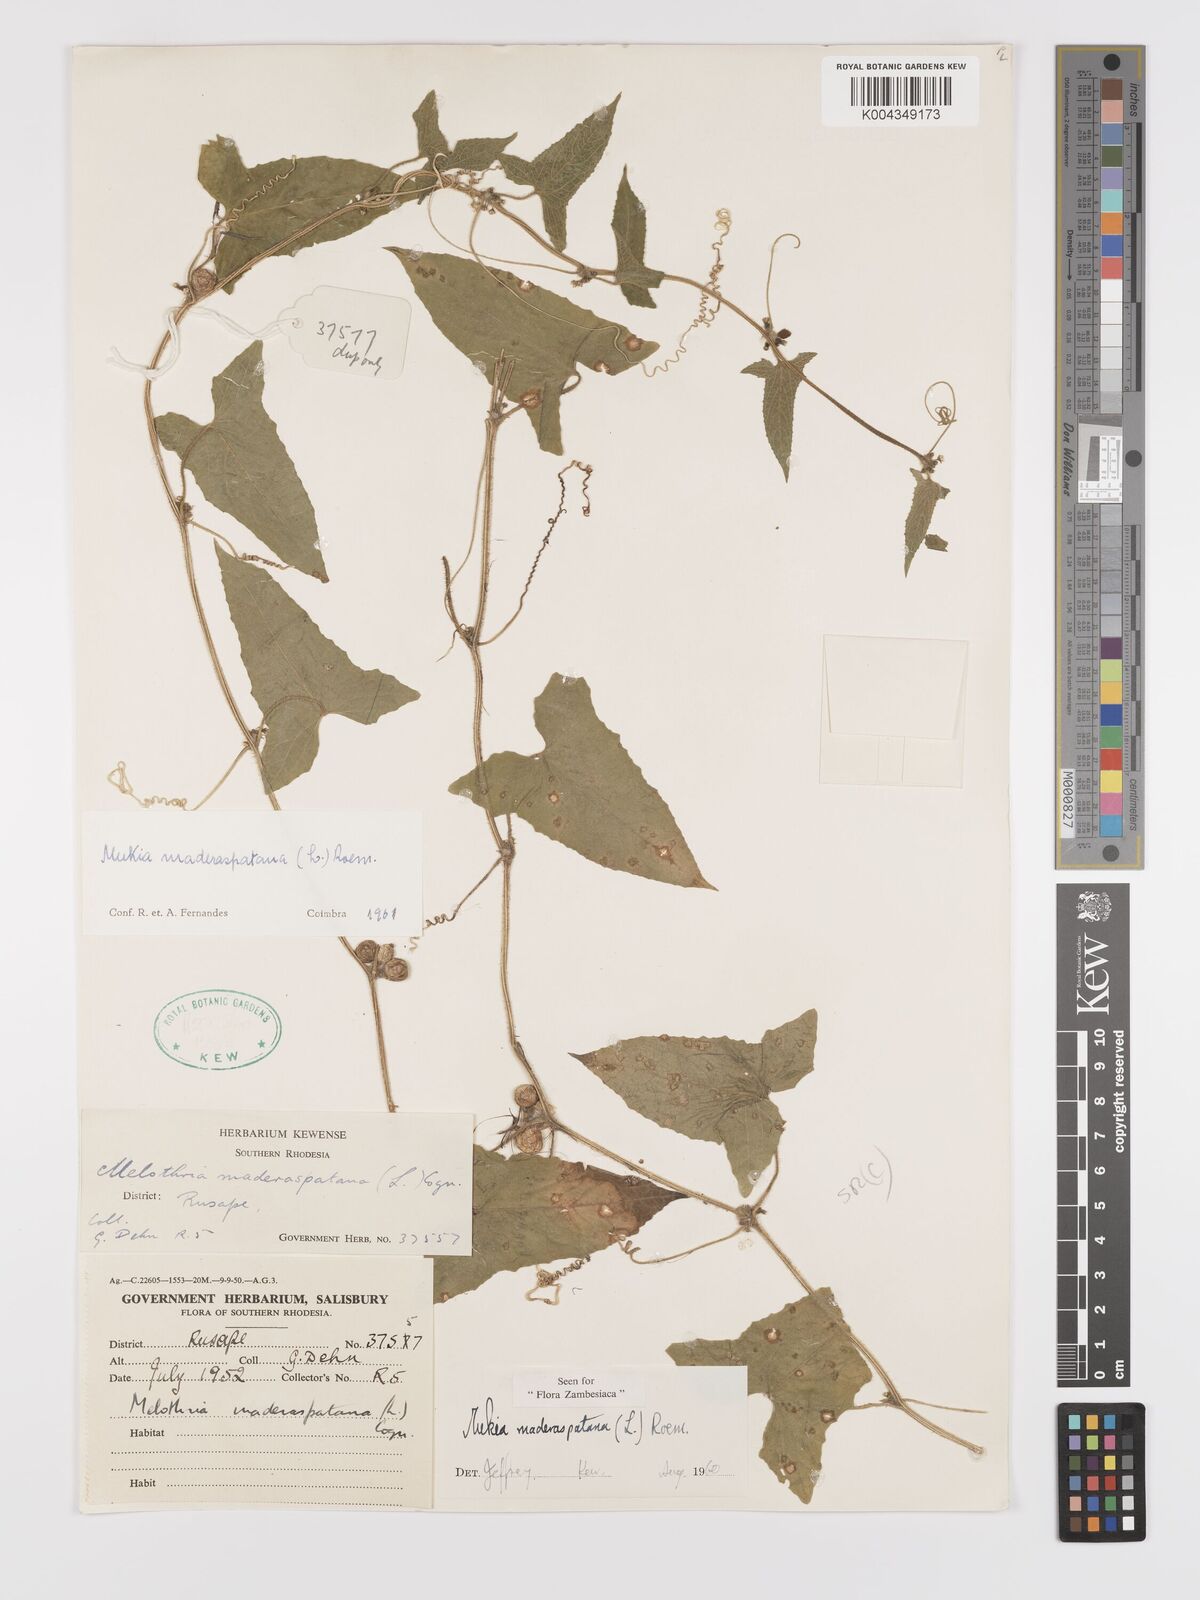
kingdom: Plantae
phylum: Tracheophyta
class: Magnoliopsida
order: Cucurbitales
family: Cucurbitaceae
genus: Cucumis
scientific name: Cucumis maderaspatanus
